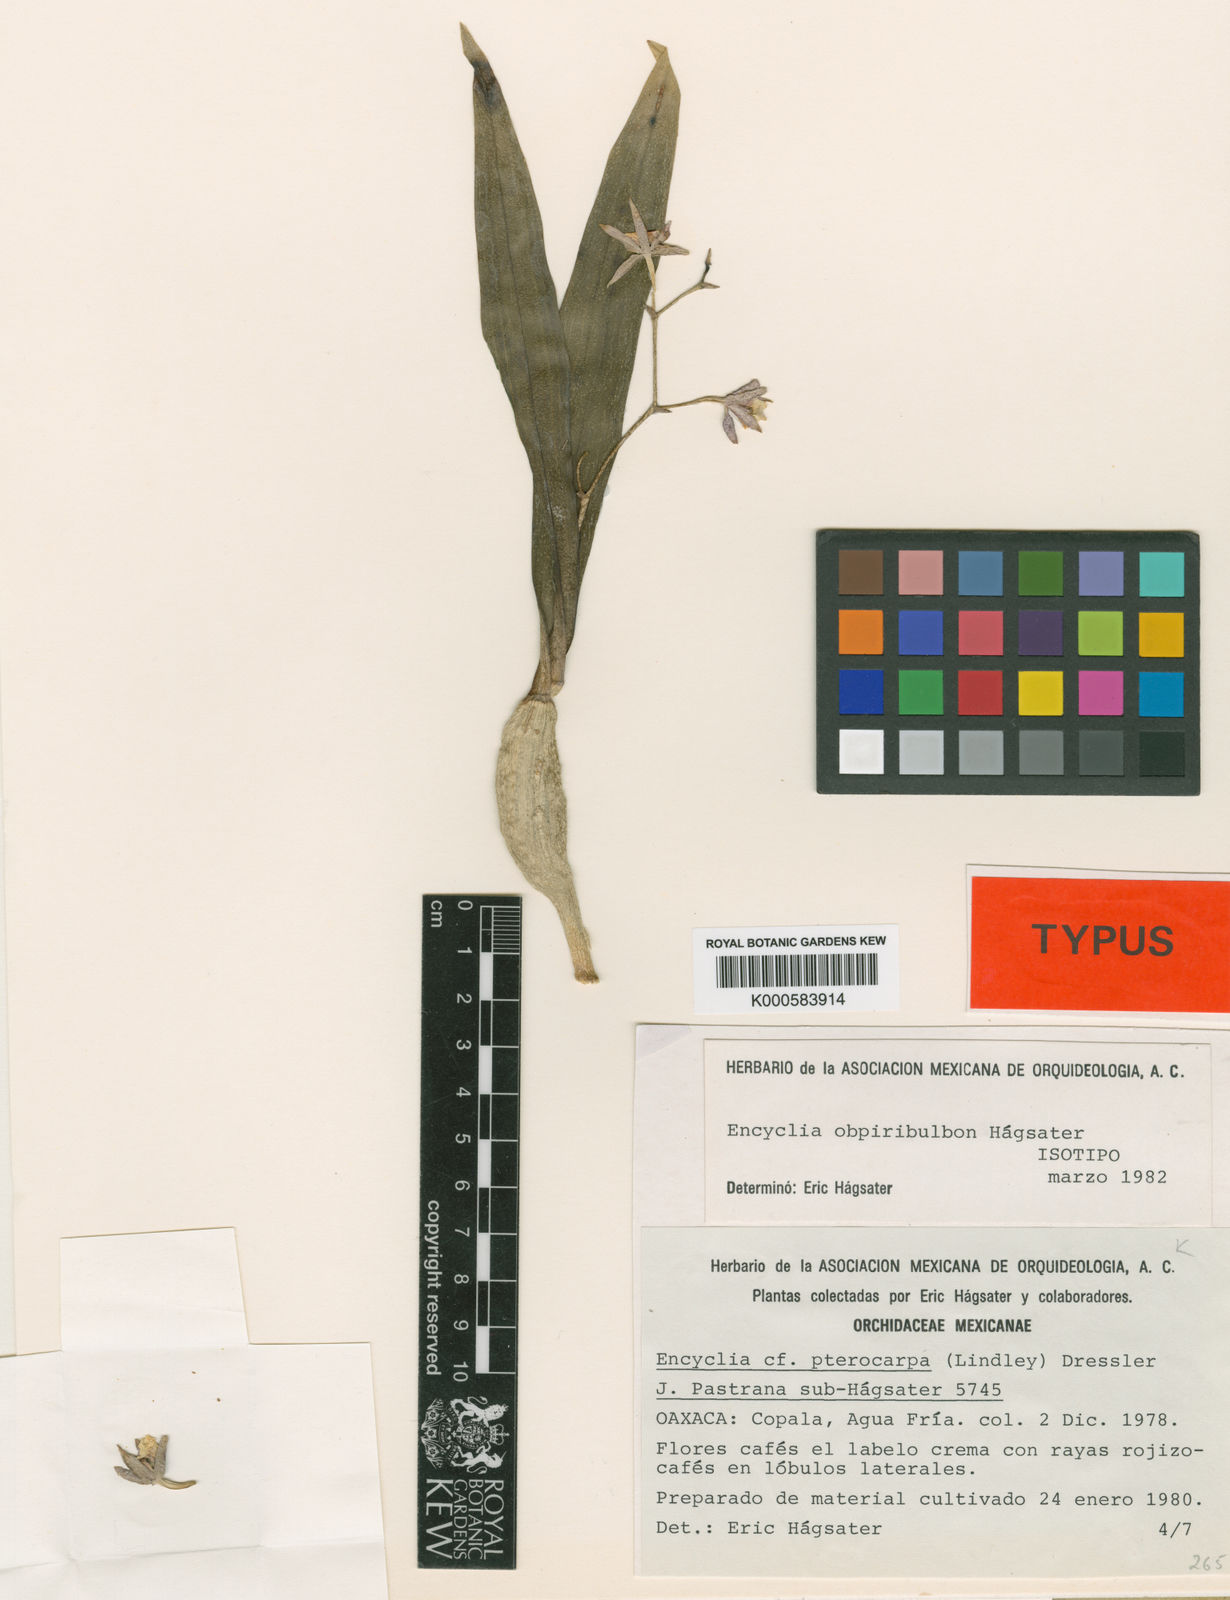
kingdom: Plantae
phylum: Tracheophyta
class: Liliopsida
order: Asparagales
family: Orchidaceae
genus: Encyclia
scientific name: Encyclia
